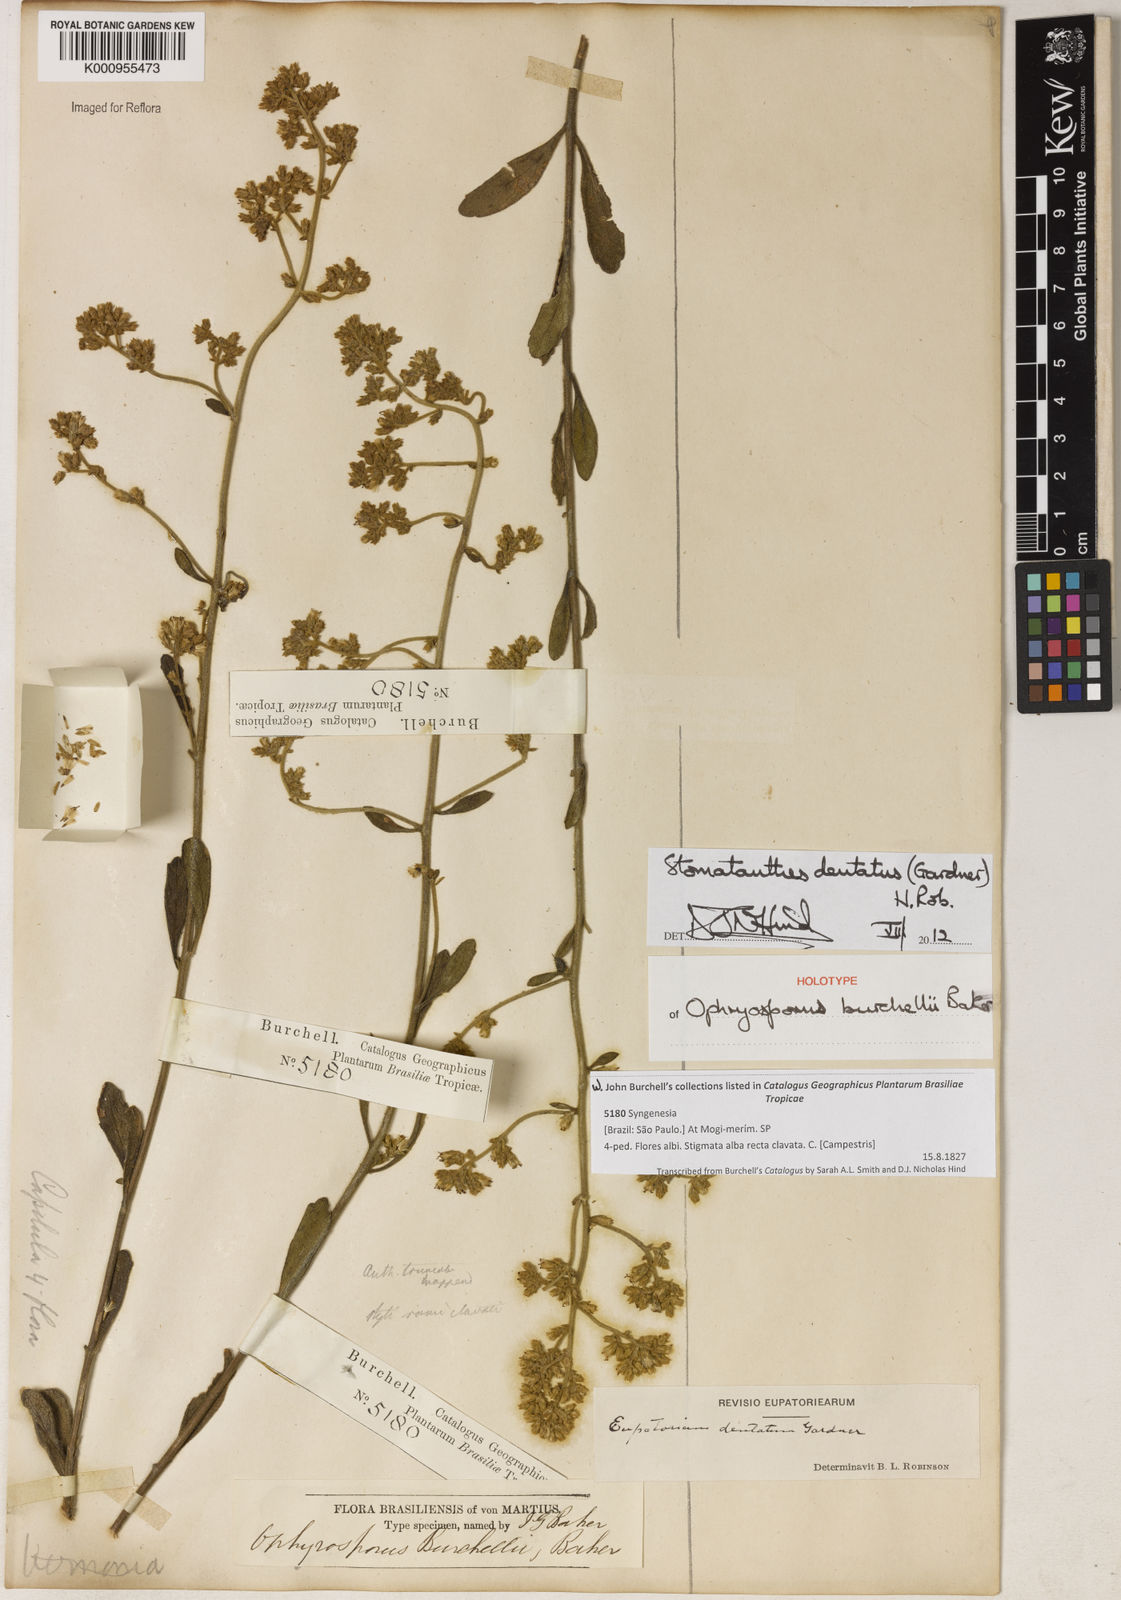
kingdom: Plantae
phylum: Tracheophyta
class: Magnoliopsida
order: Asterales
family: Asteraceae
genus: Stomatanthes
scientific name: Stomatanthes dentatus
